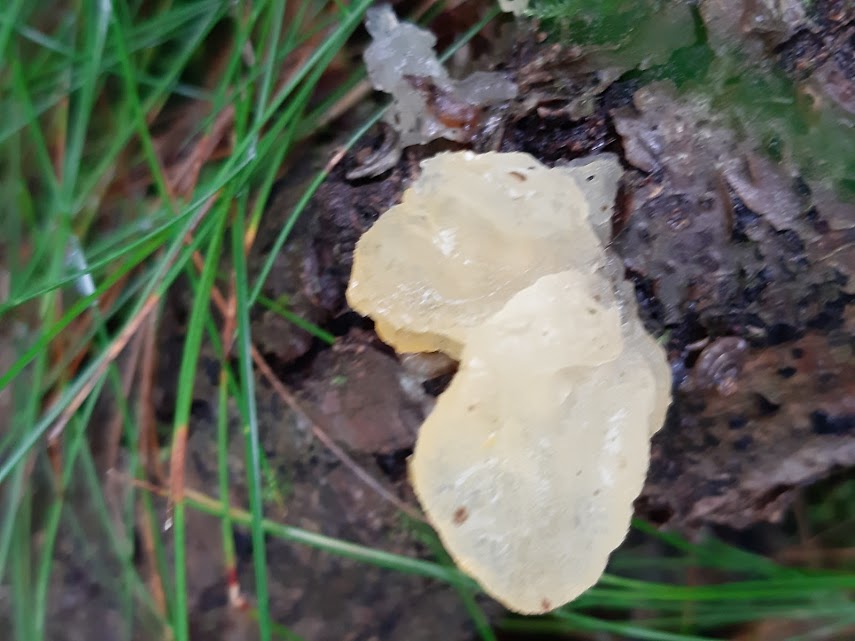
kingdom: Fungi
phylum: Basidiomycota
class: Tremellomycetes
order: Tremellales
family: Tremellaceae
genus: Tremella
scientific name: Tremella mesenterica
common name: gul bævresvamp
